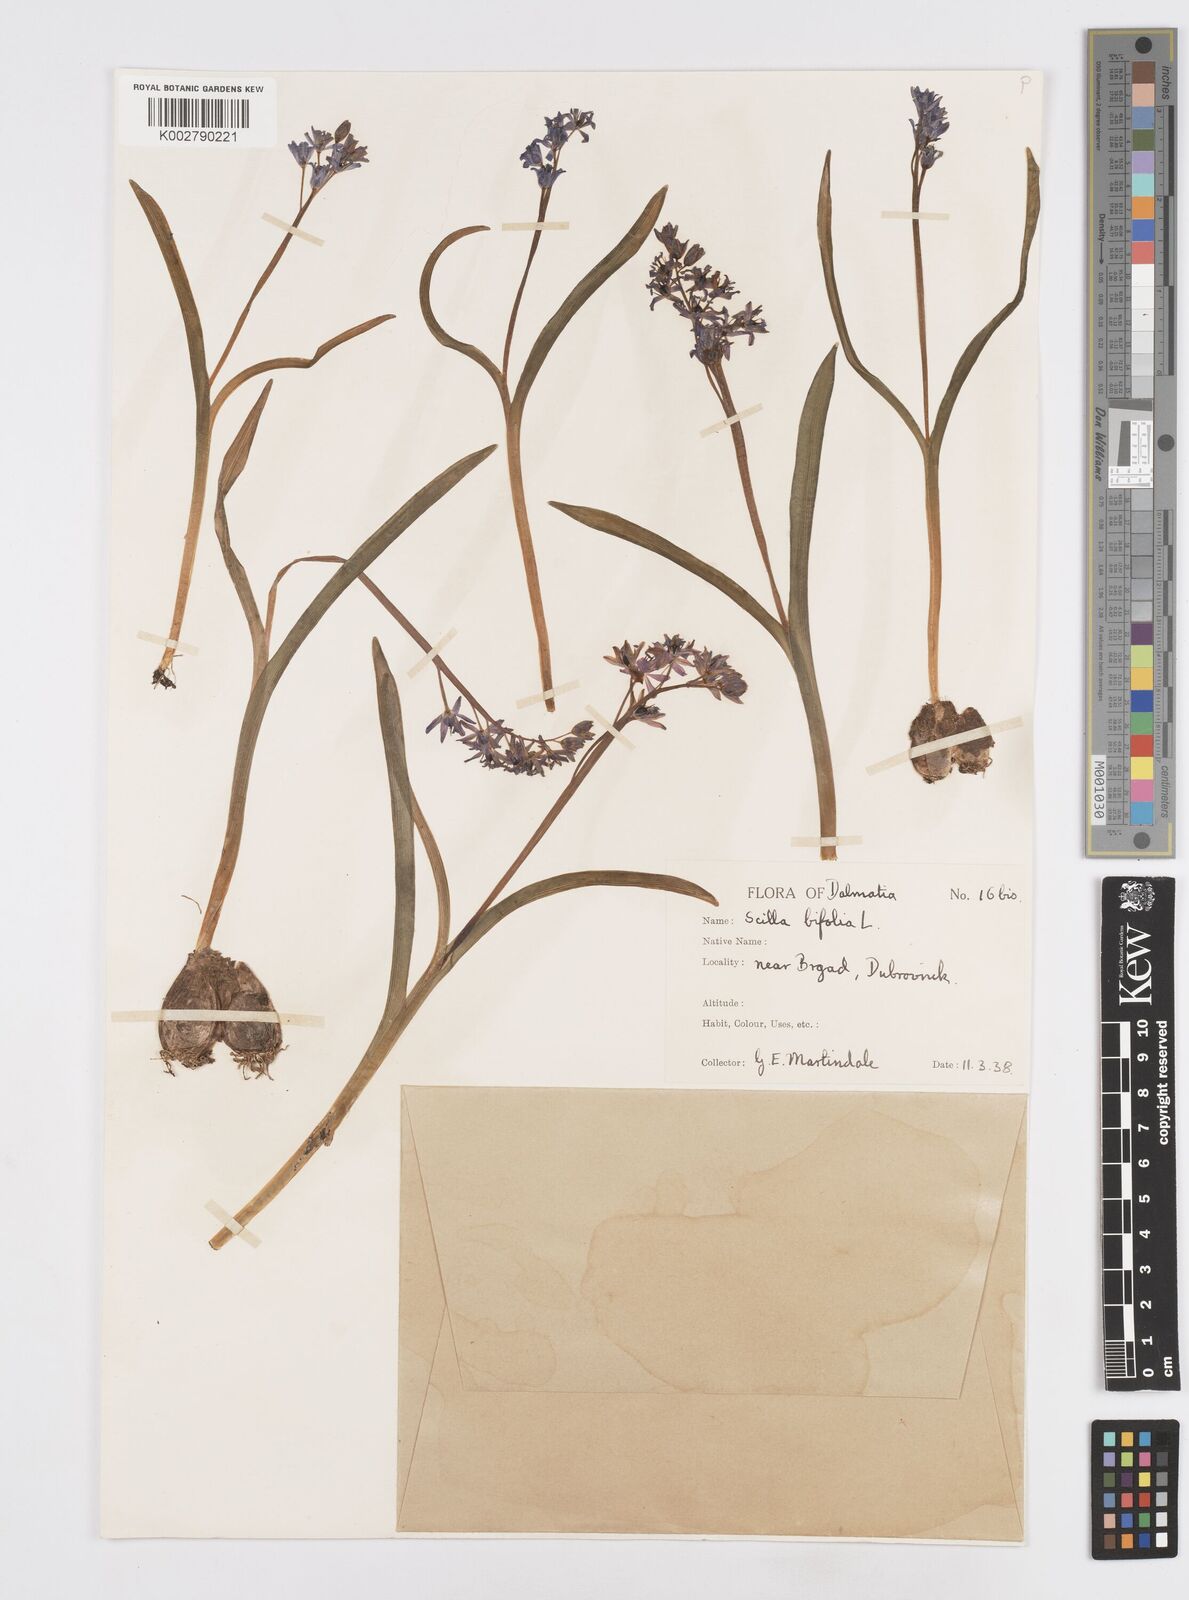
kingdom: Plantae
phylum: Tracheophyta
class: Liliopsida
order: Asparagales
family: Asparagaceae
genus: Scilla
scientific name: Scilla bifolia
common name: Alpine squill
